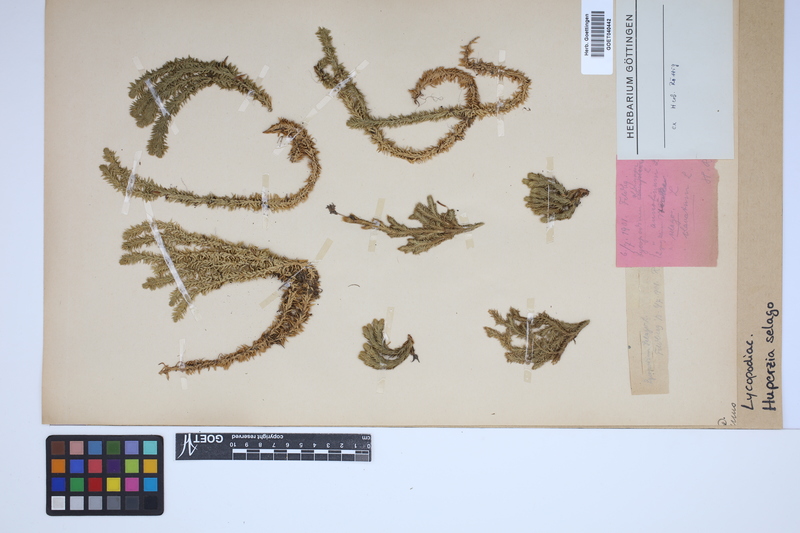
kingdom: Plantae
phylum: Tracheophyta
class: Lycopodiopsida
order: Lycopodiales
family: Lycopodiaceae
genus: Huperzia
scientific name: Huperzia selago
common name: Northern firmoss
